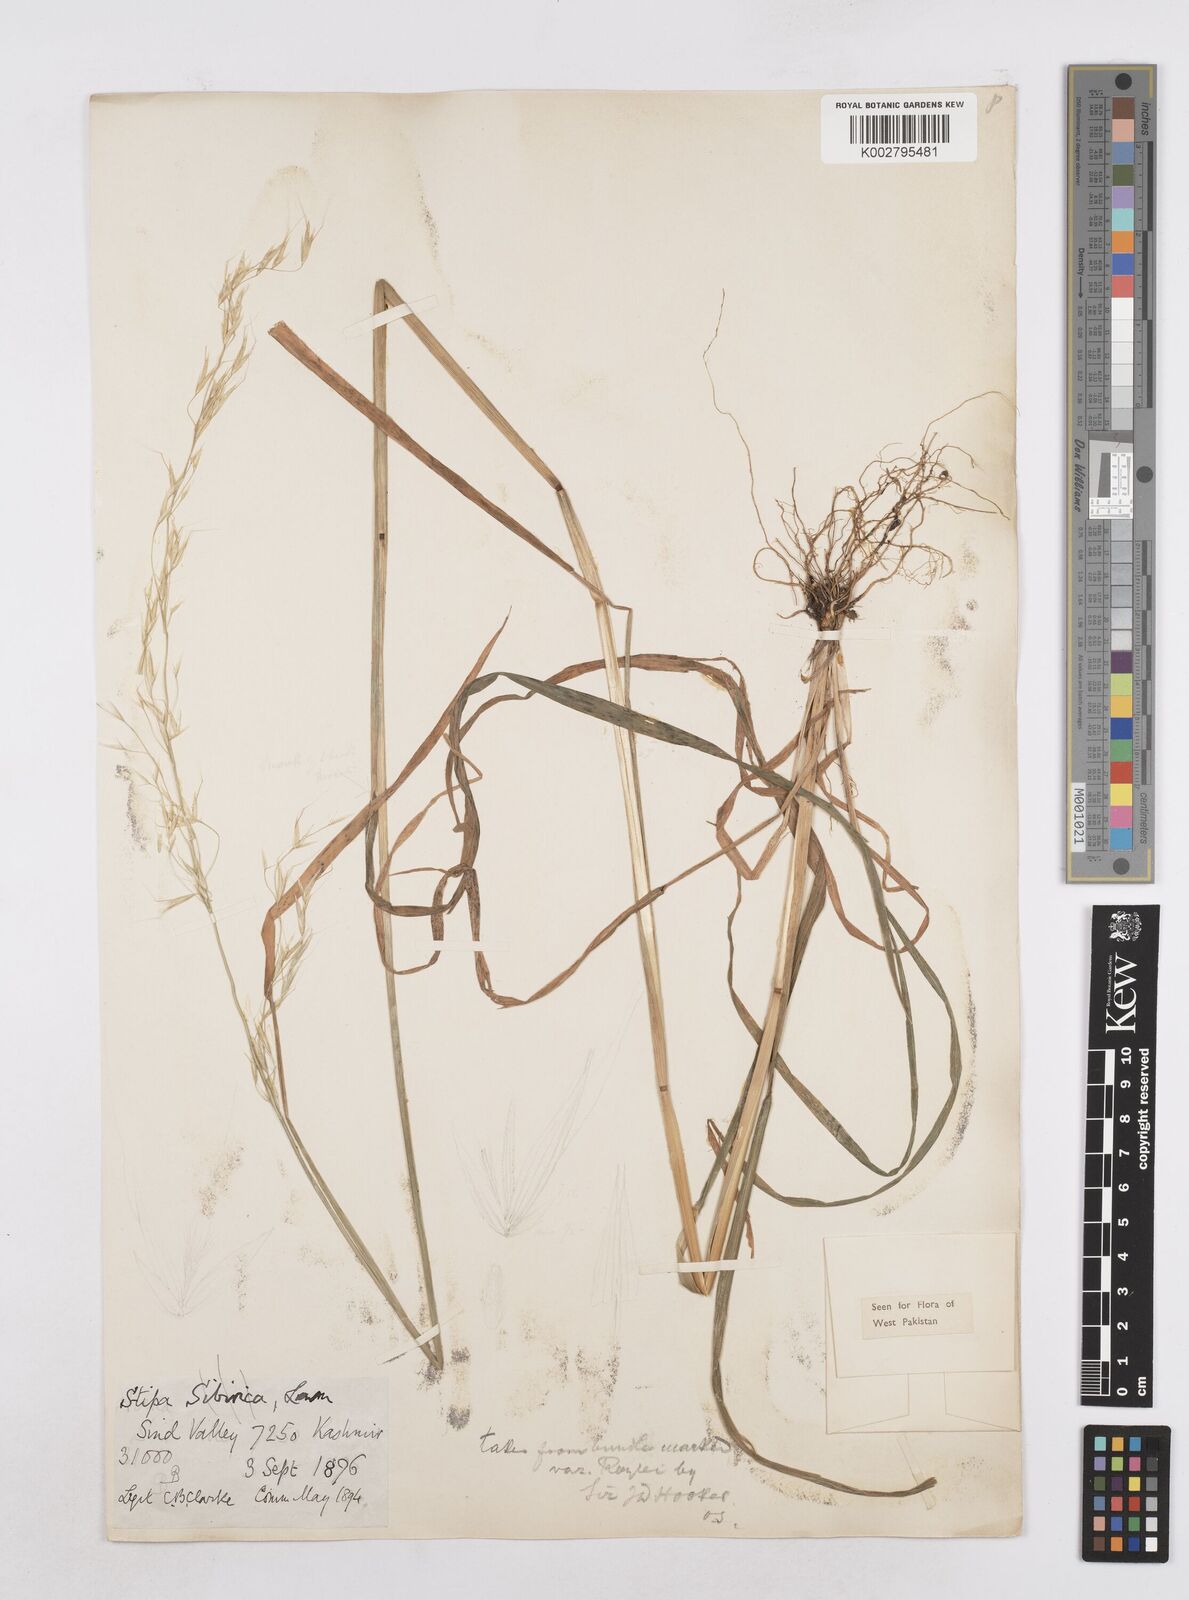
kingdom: Plantae
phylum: Tracheophyta
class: Liliopsida
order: Poales
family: Poaceae
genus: Trisetopsis
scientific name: Trisetopsis junghuhnii
